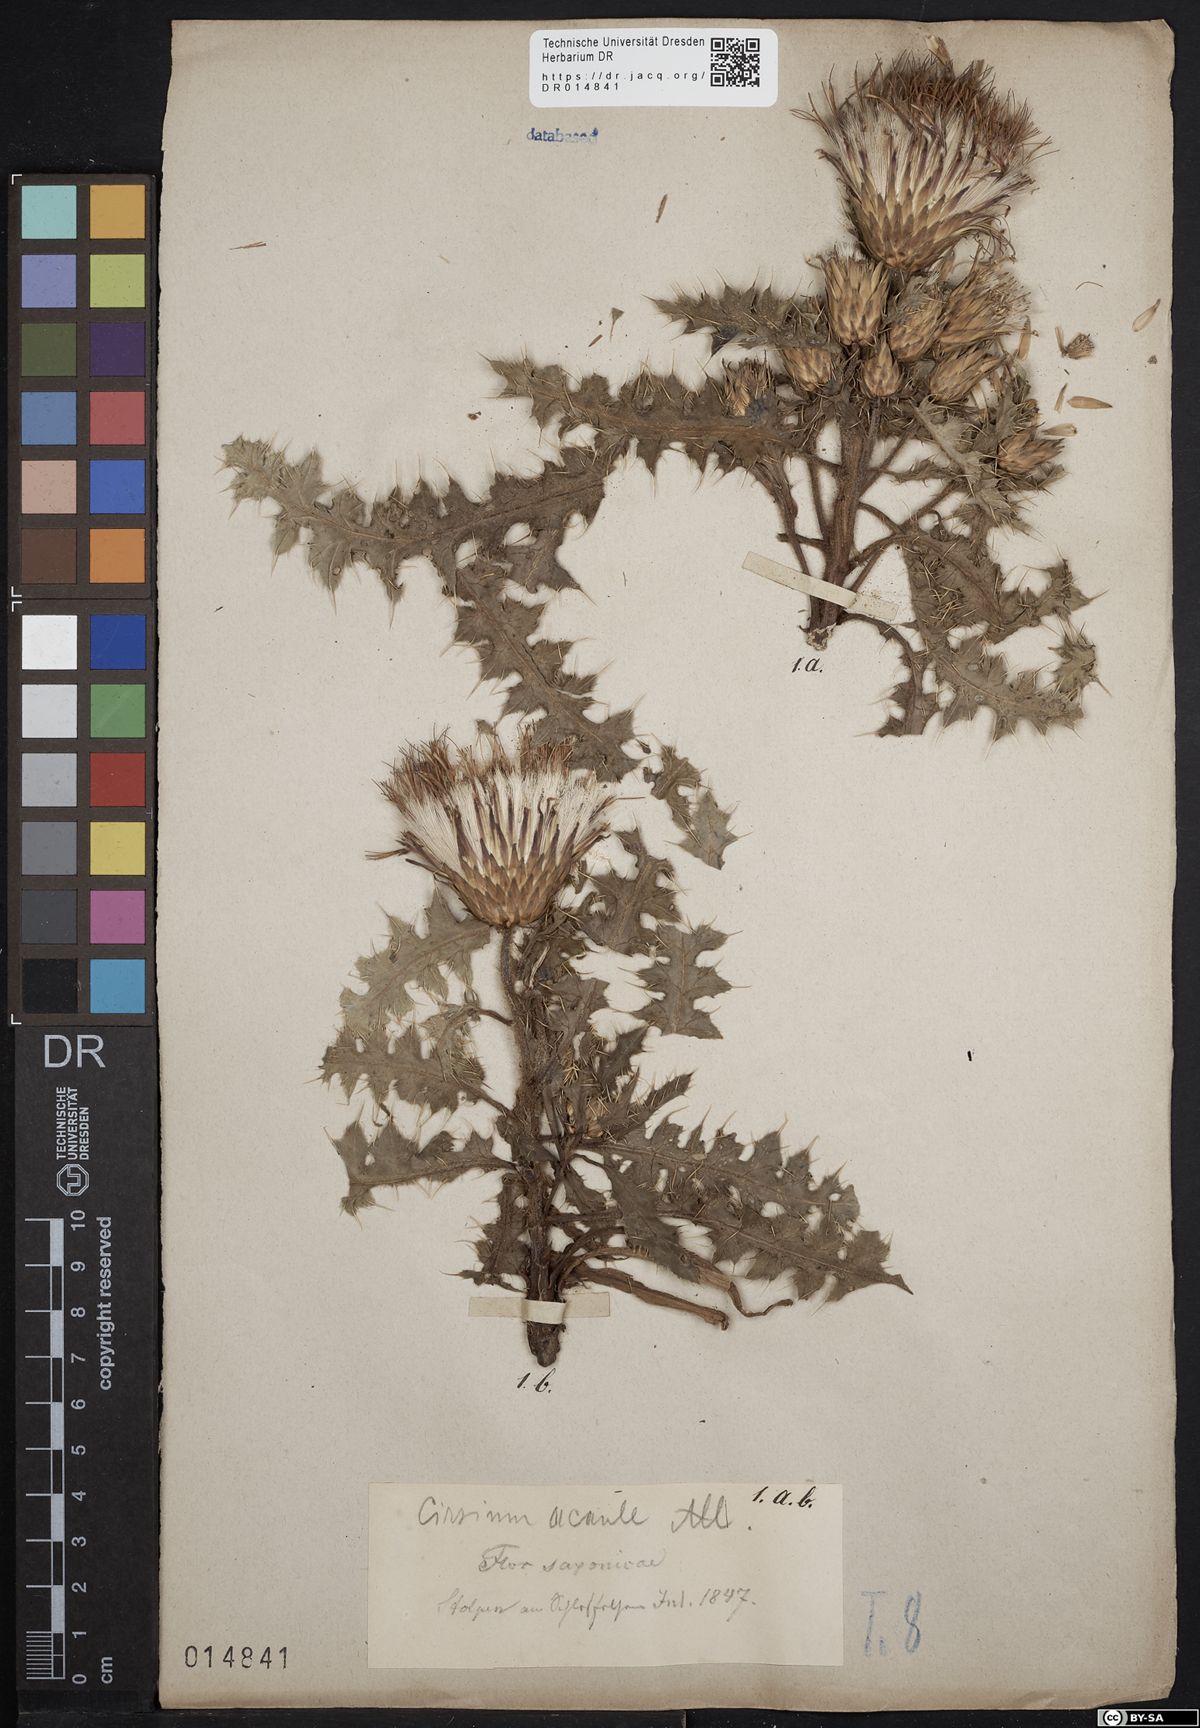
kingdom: Plantae
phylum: Tracheophyta
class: Magnoliopsida
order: Asterales
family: Asteraceae
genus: Cirsium
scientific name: Cirsium acaule
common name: Dwarf thistle
